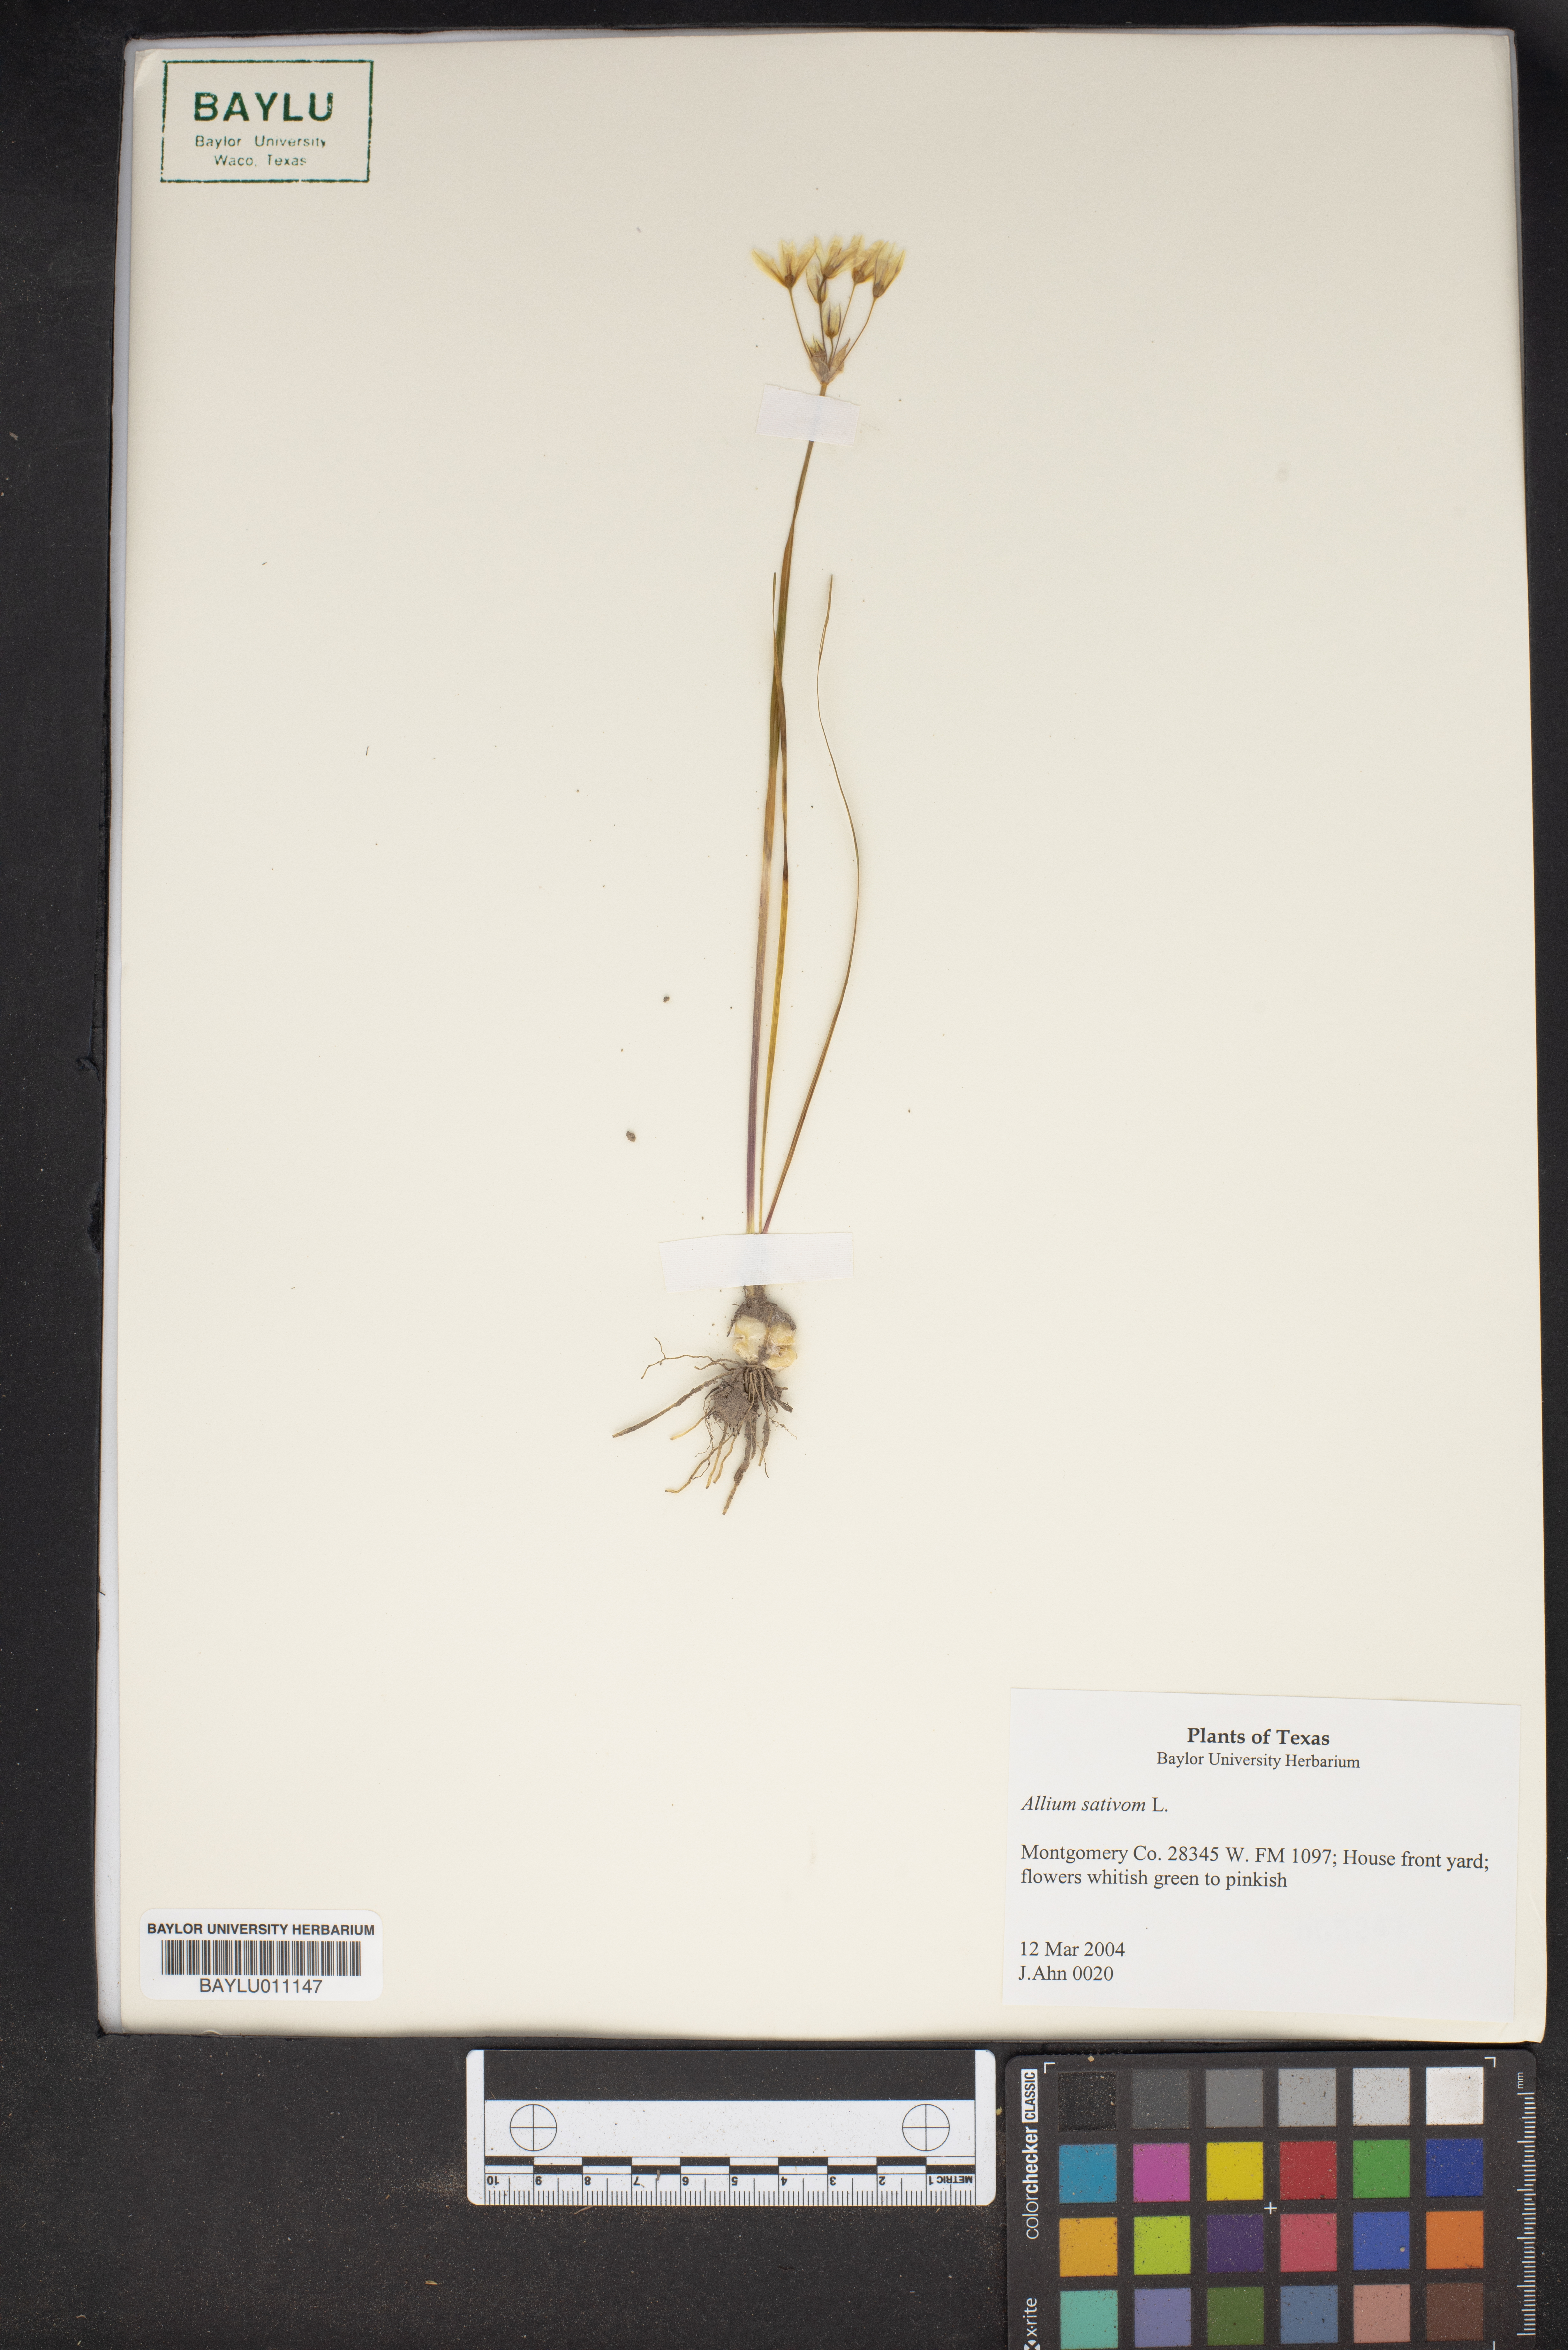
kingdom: Plantae
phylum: Tracheophyta
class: Liliopsida
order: Asparagales
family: Amaryllidaceae
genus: Allium
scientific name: Allium sativum
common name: Garlic
